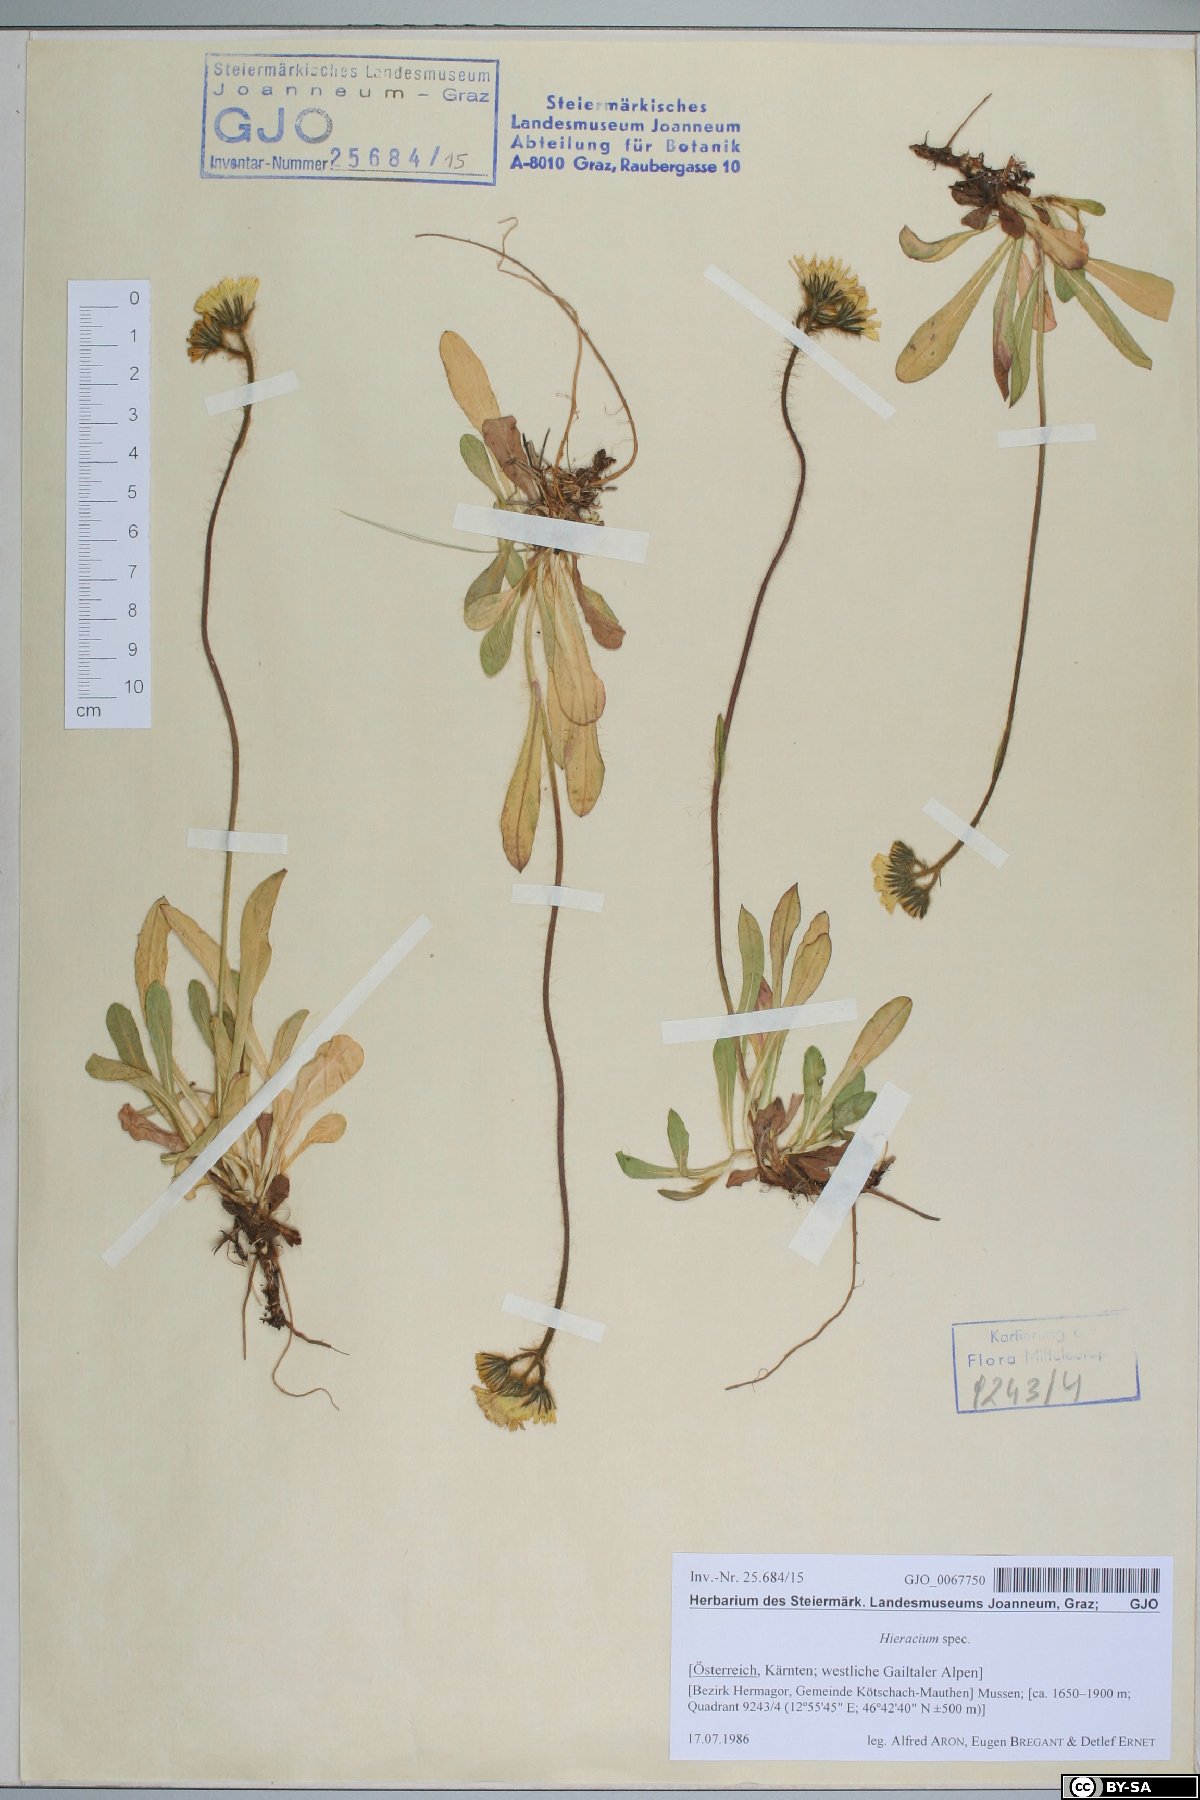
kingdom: Plantae
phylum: Tracheophyta
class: Magnoliopsida
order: Asterales
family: Asteraceae
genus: Hieracium
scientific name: Hieracium
